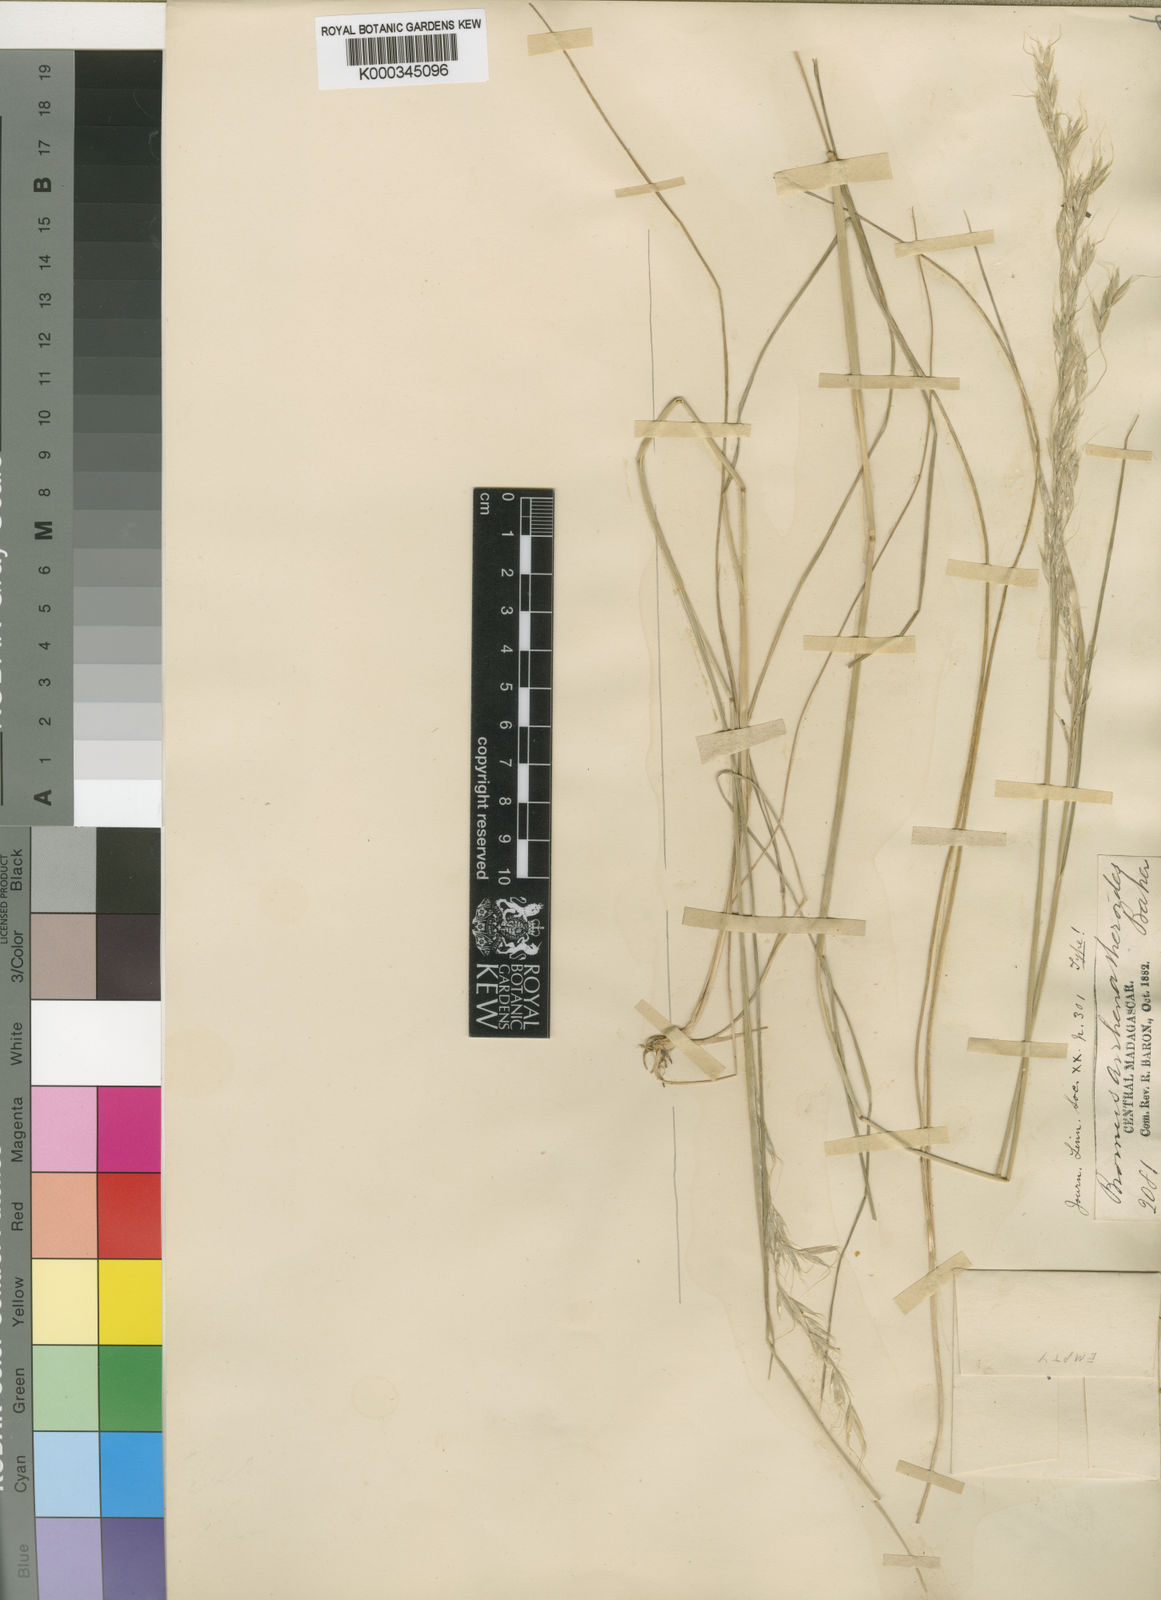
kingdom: Plantae
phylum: Tracheophyta
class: Liliopsida
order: Poales
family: Poaceae
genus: Trisetopsis
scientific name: Trisetopsis elongata
